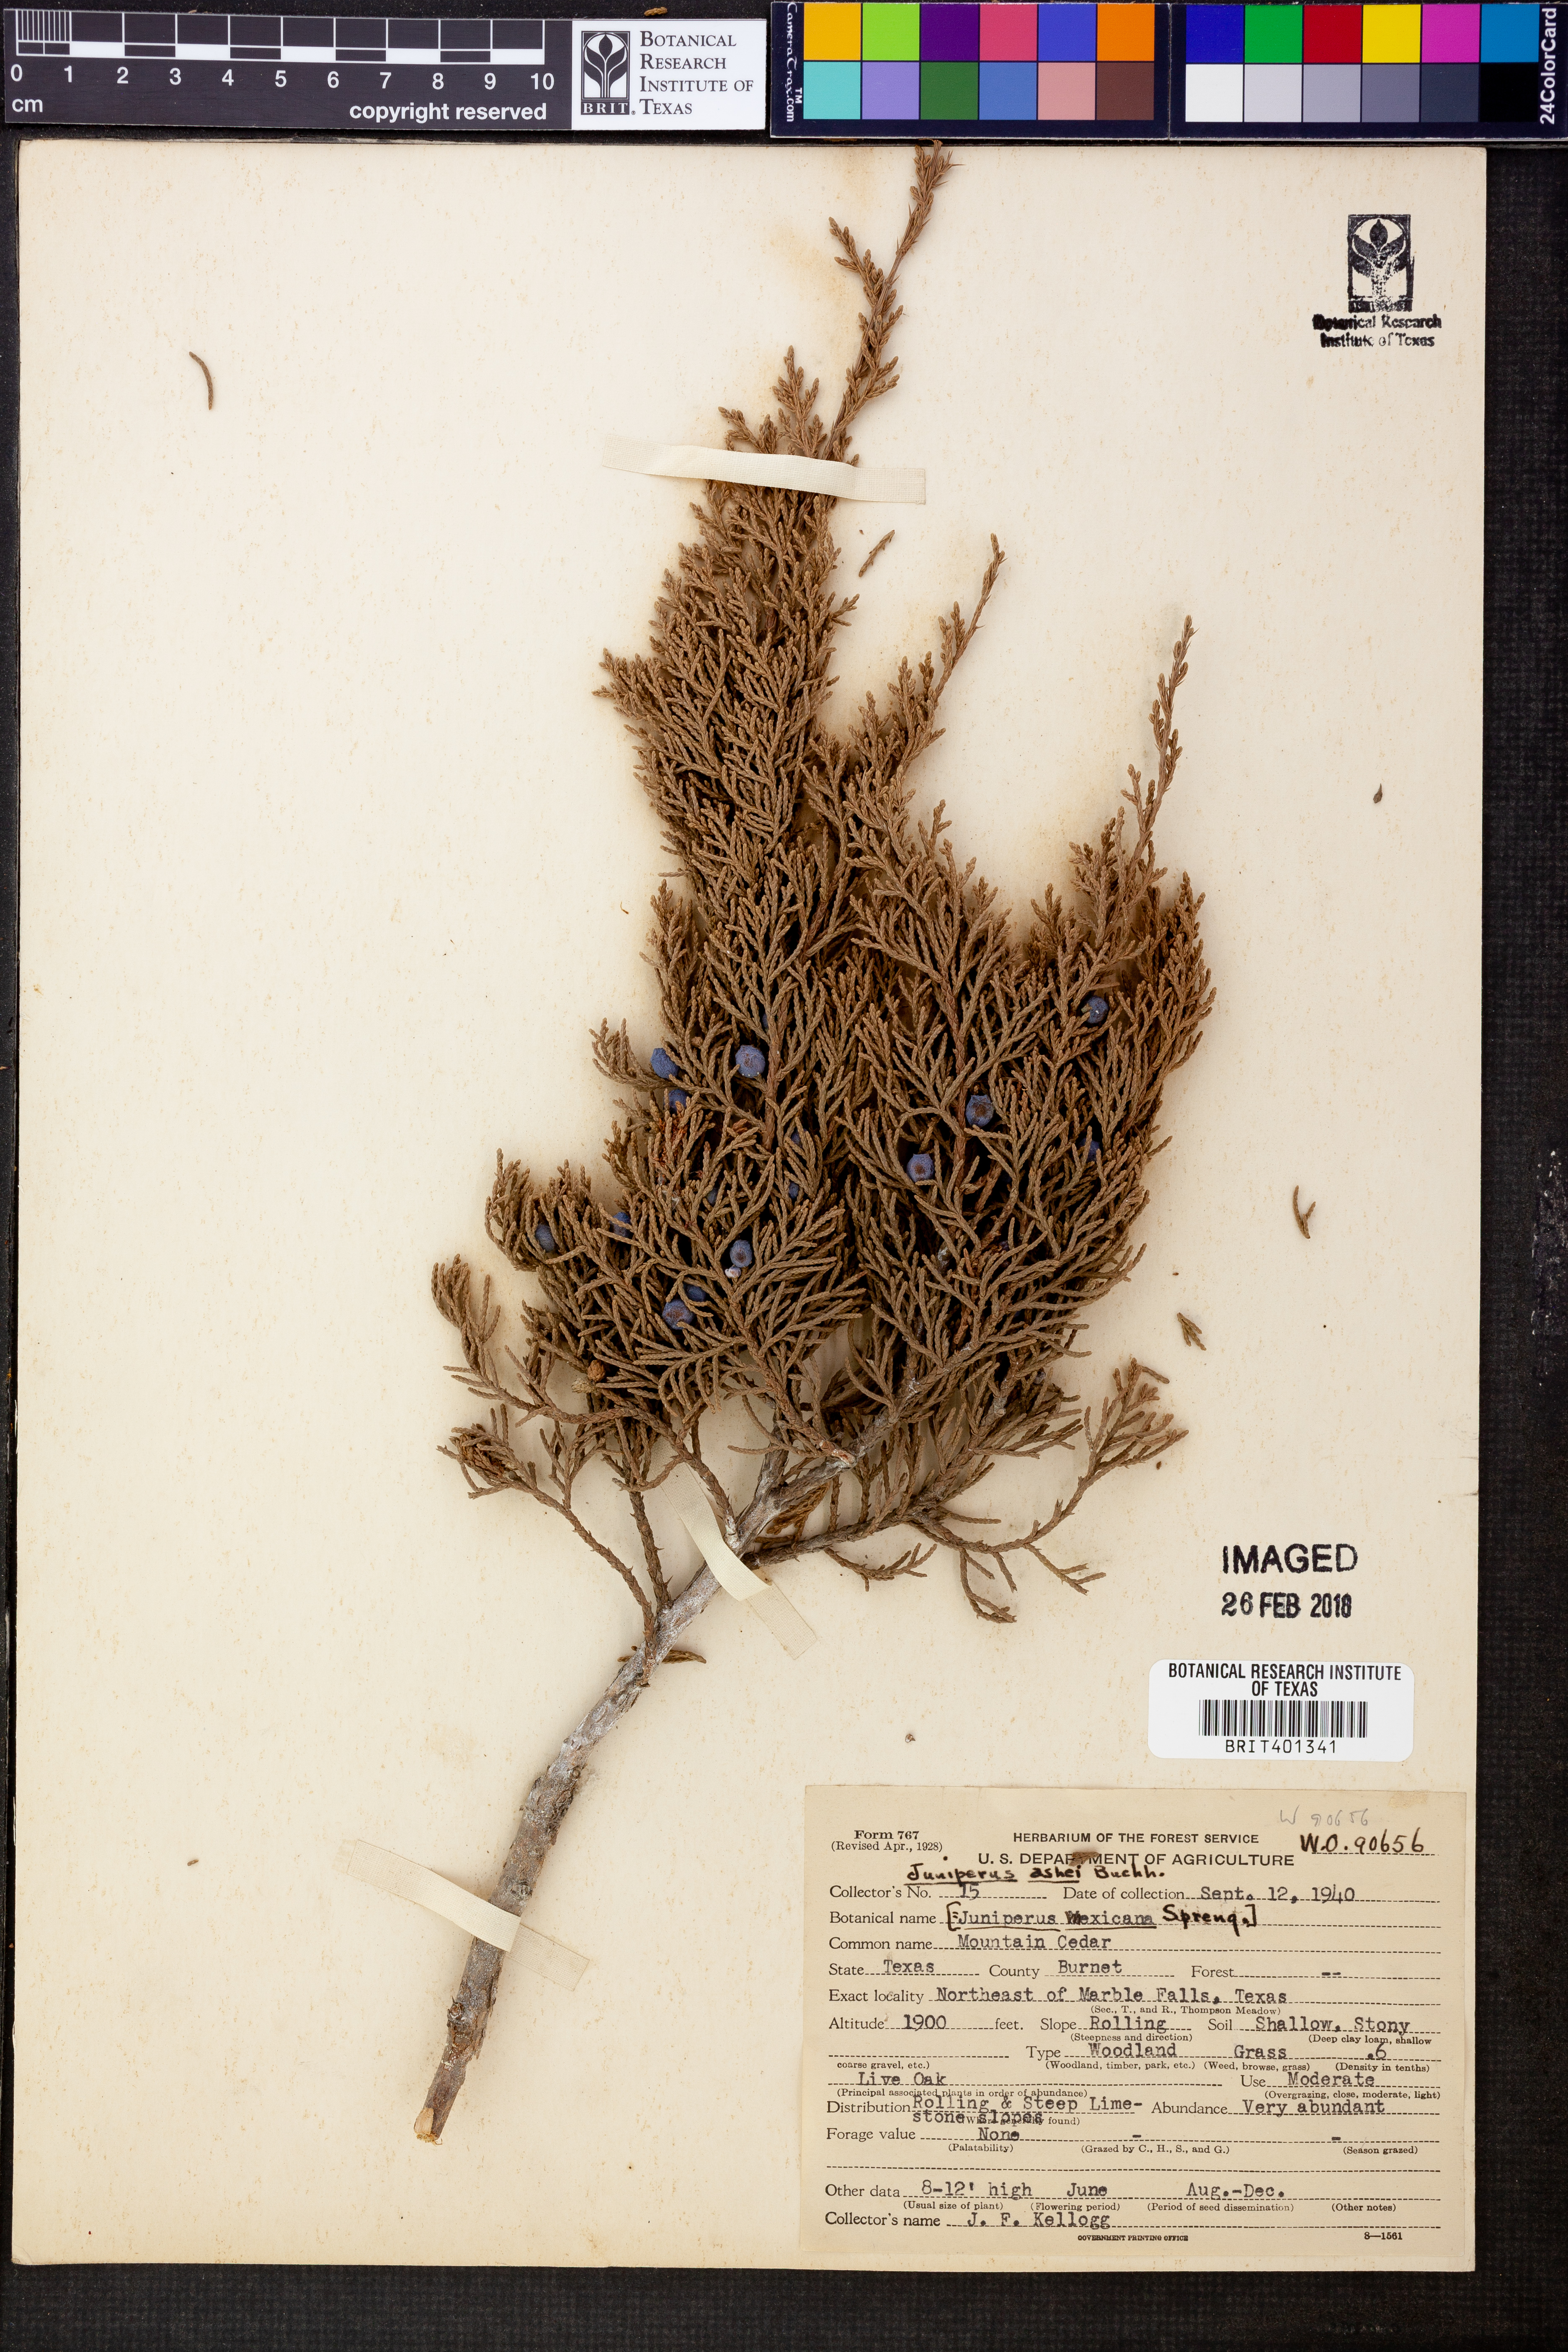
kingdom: Plantae
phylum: Tracheophyta
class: Pinopsida
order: Pinales
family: Cupressaceae
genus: Juniperus
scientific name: Juniperus ashei
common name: Mexican juniper
